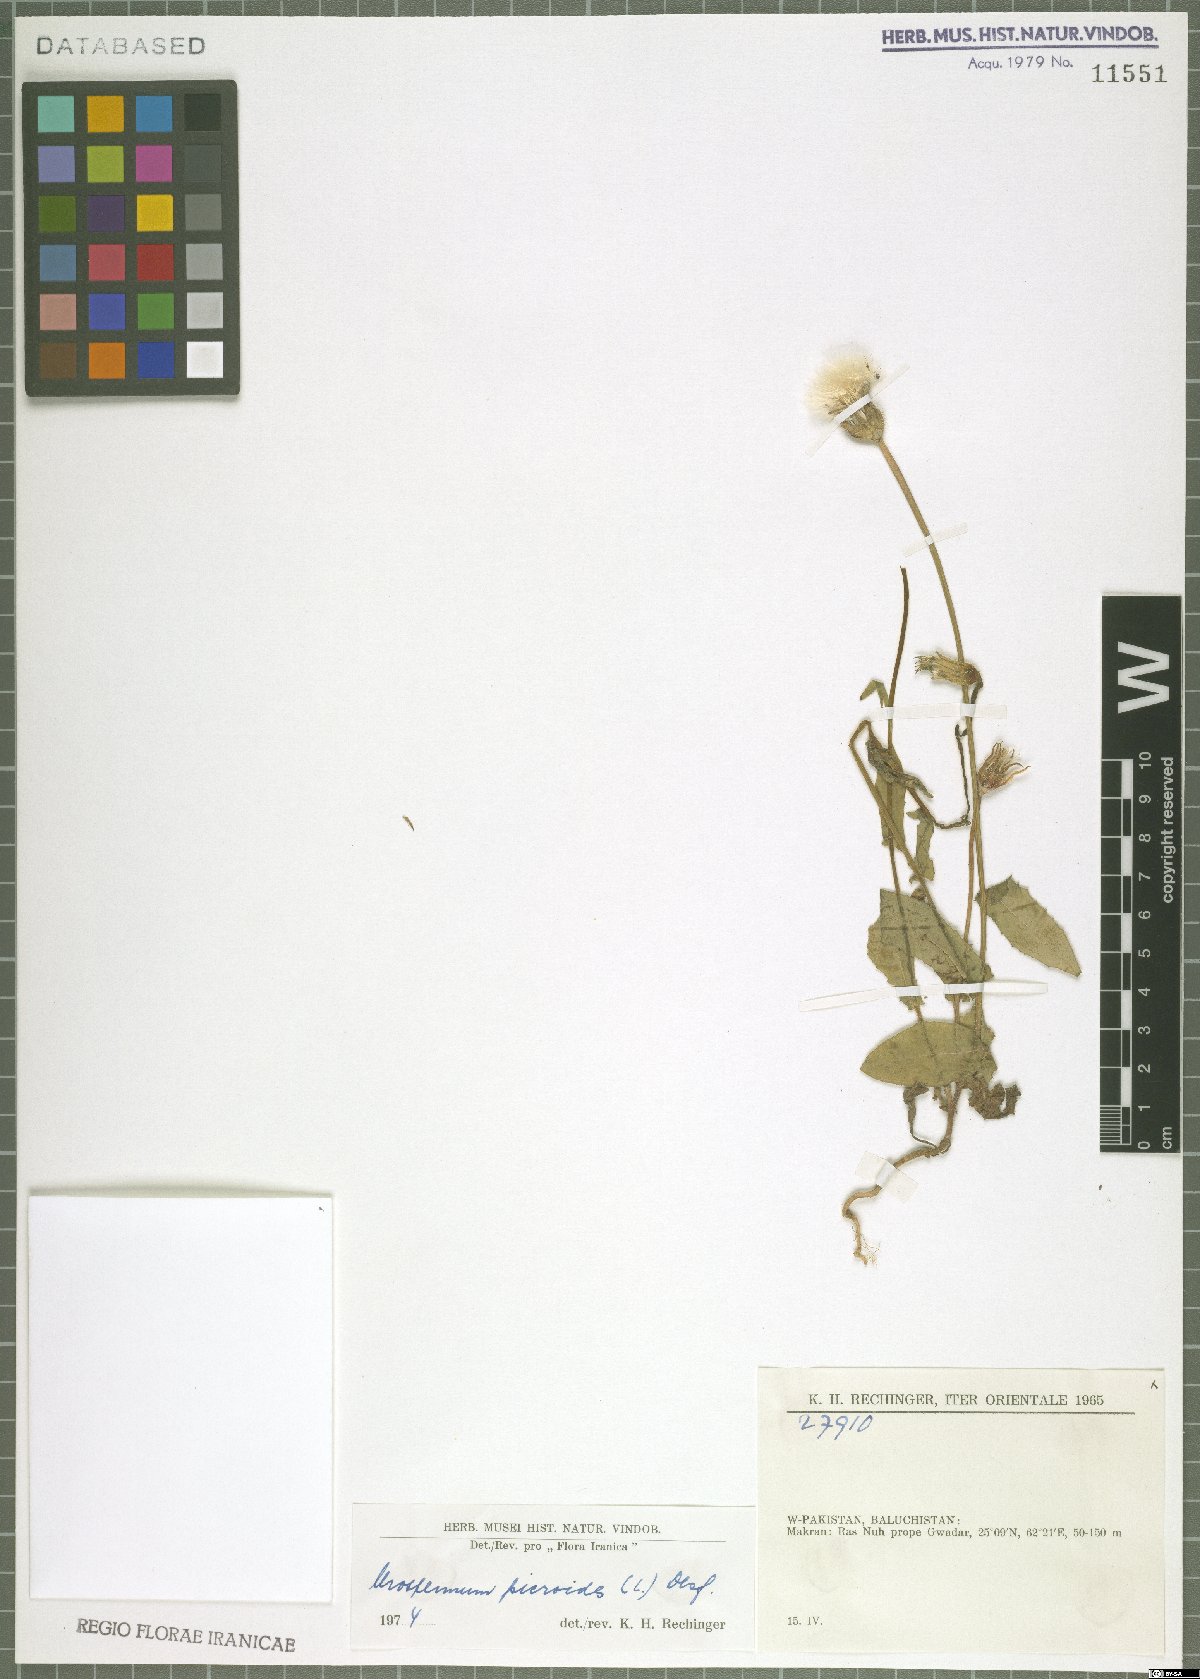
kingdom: Plantae
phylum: Tracheophyta
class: Magnoliopsida
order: Asterales
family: Asteraceae
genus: Urospermum
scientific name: Urospermum picroides
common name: False hawkbit
